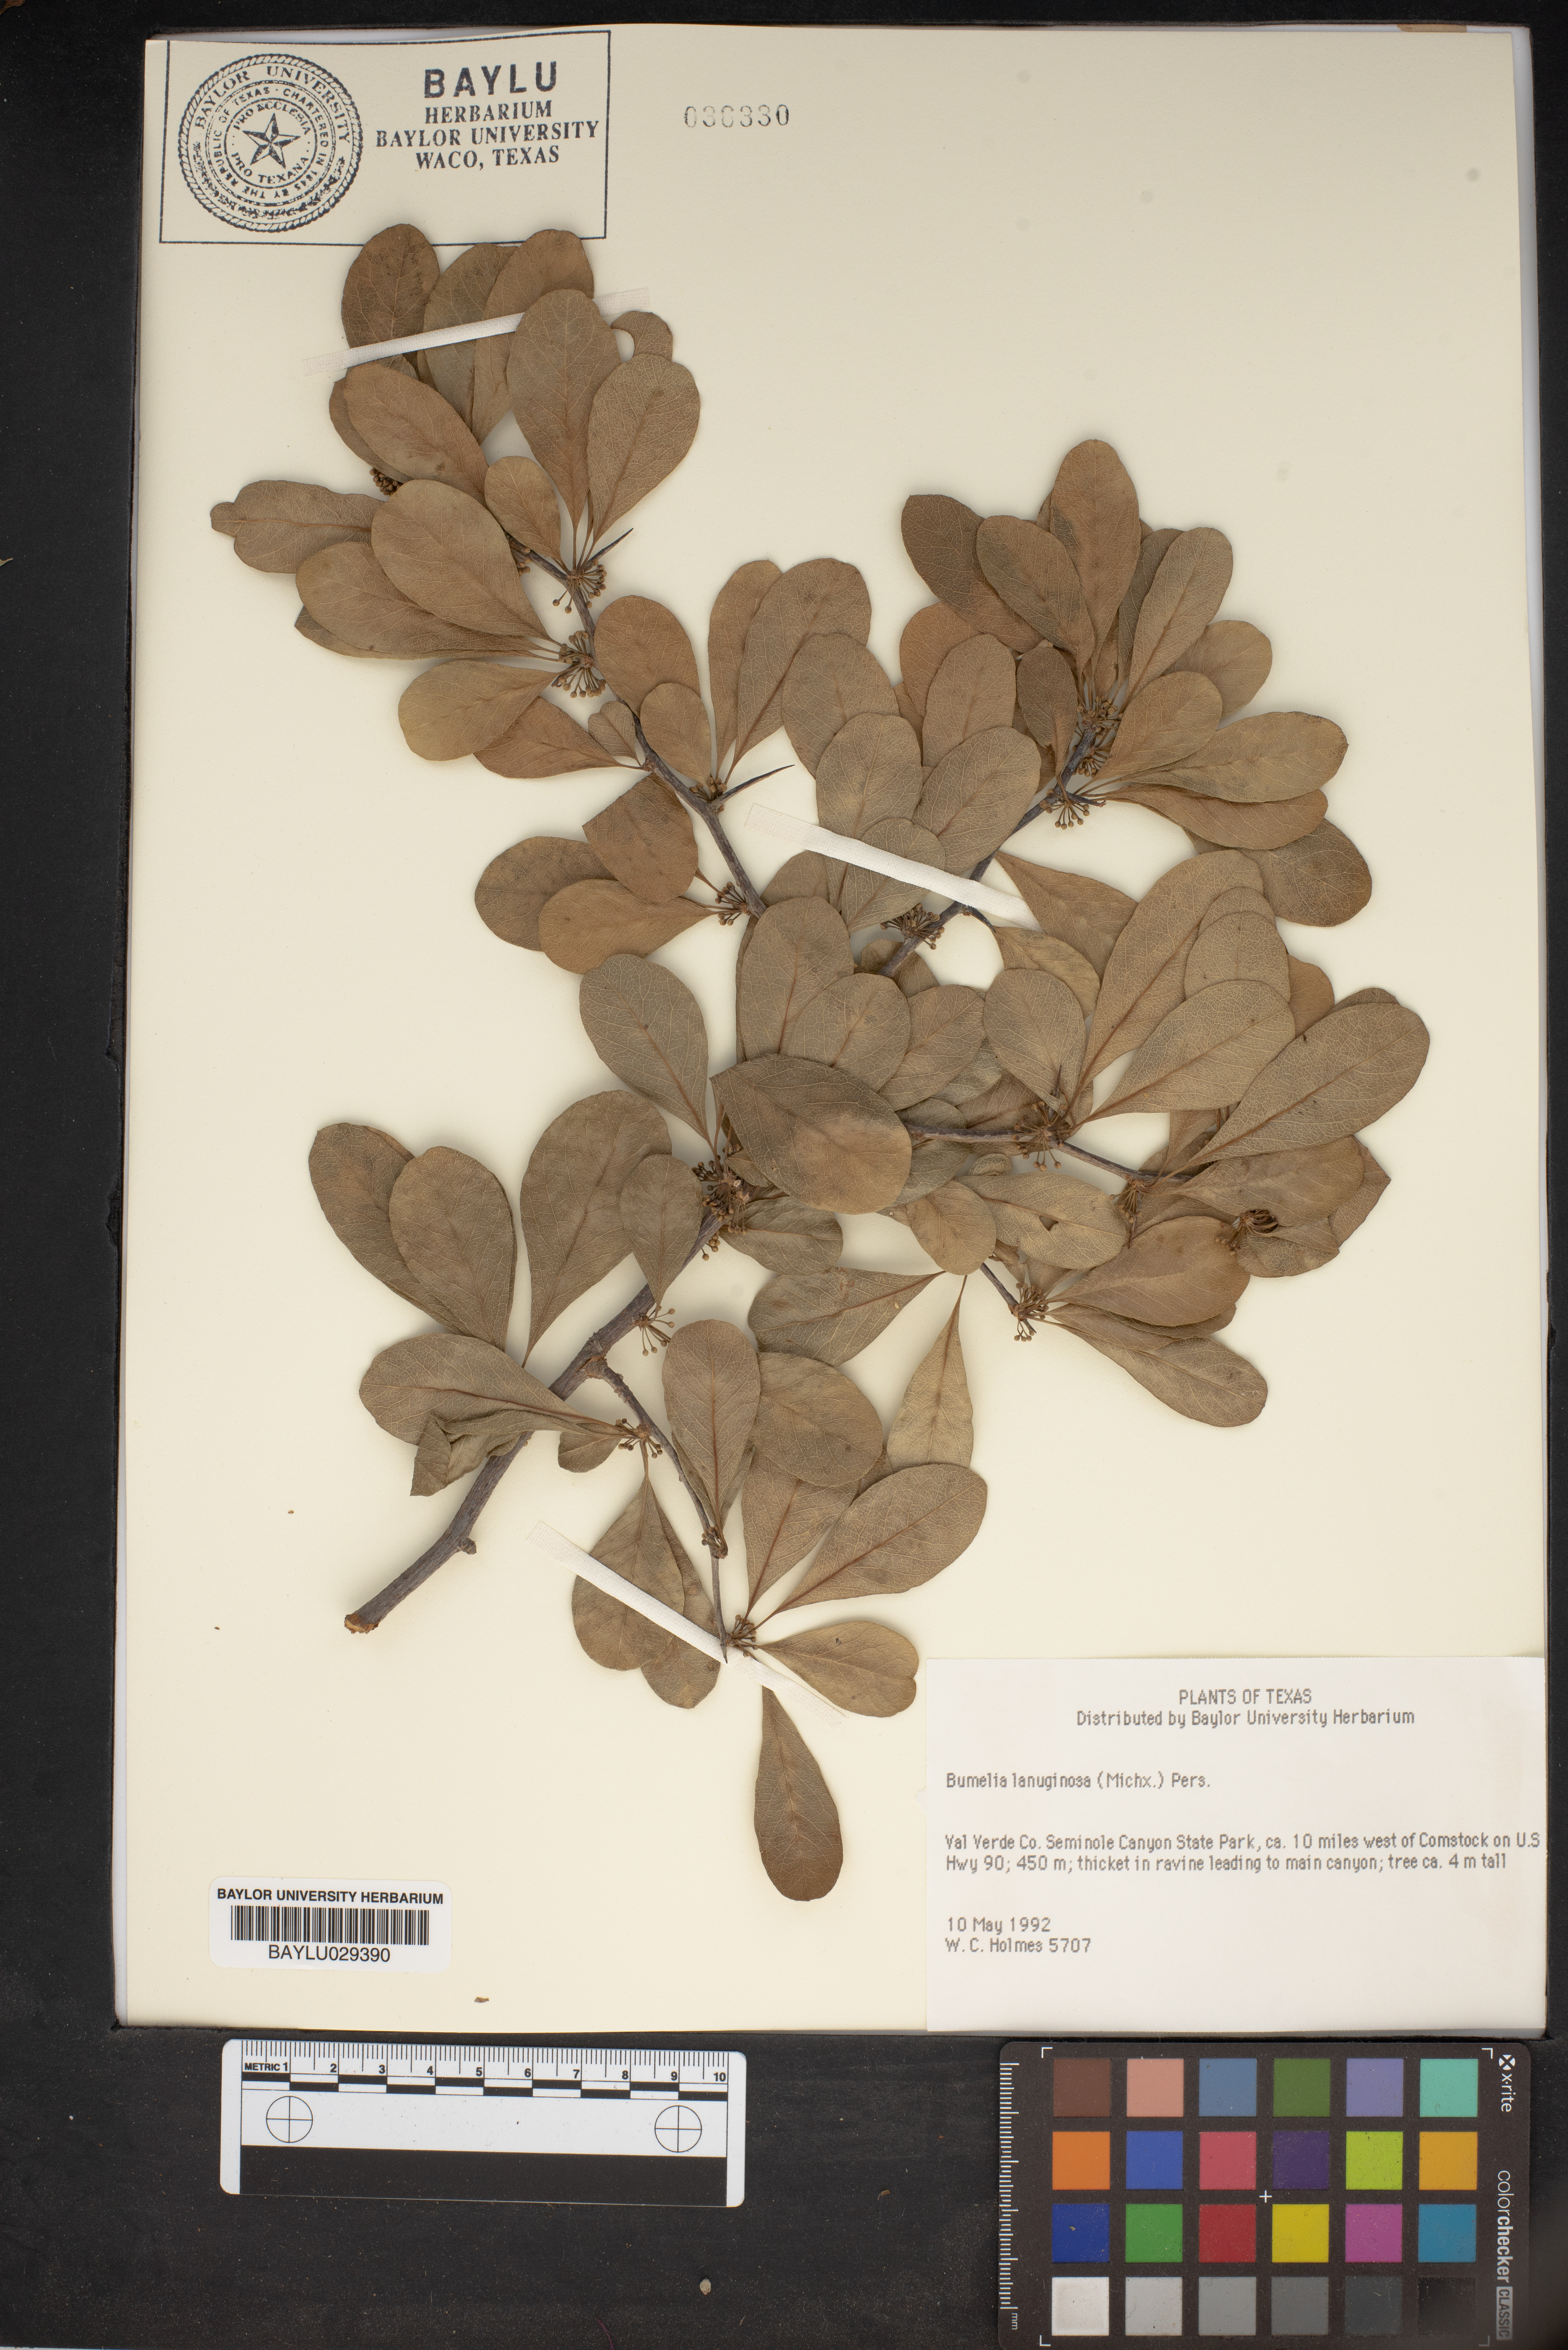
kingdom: Plantae
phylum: Tracheophyta
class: Magnoliopsida
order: Ericales
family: Sapotaceae
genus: Sideroxylon
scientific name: Sideroxylon lanuginosum
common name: Chittamwood
